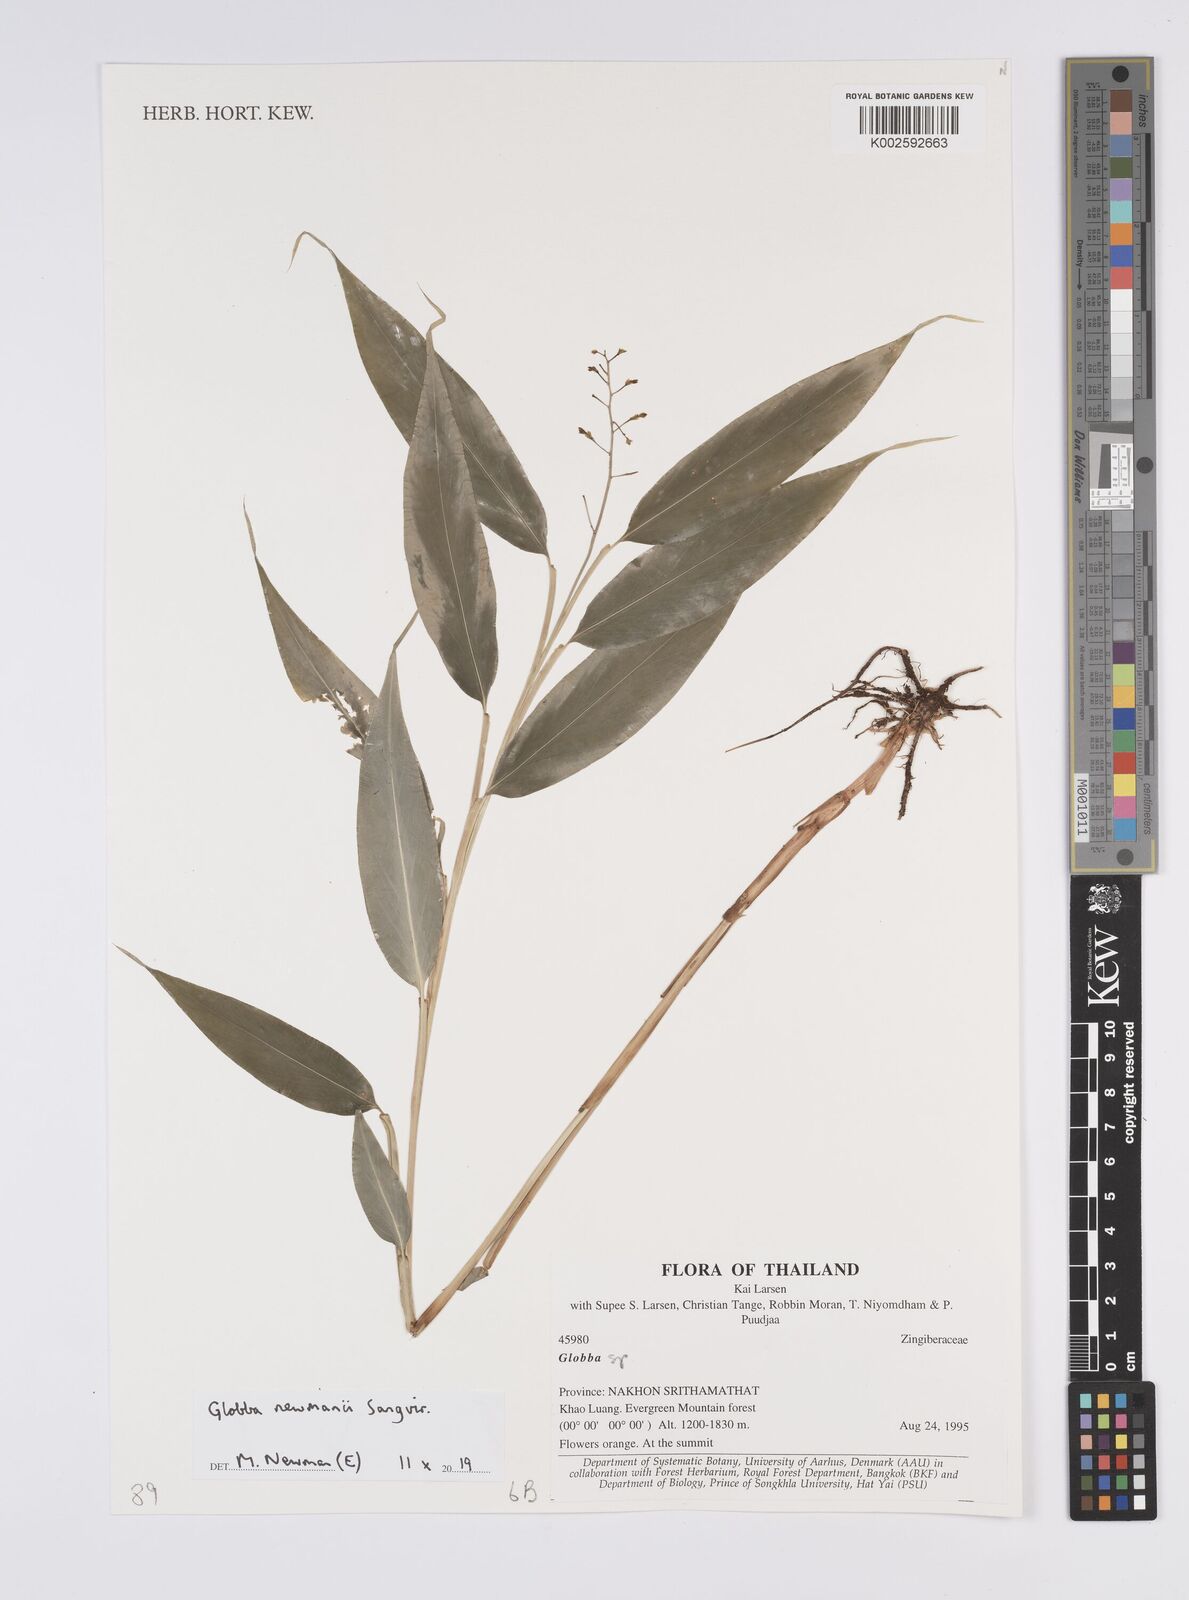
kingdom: Plantae
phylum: Tracheophyta
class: Liliopsida
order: Zingiberales
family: Zingiberaceae
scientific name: Zingiberaceae
